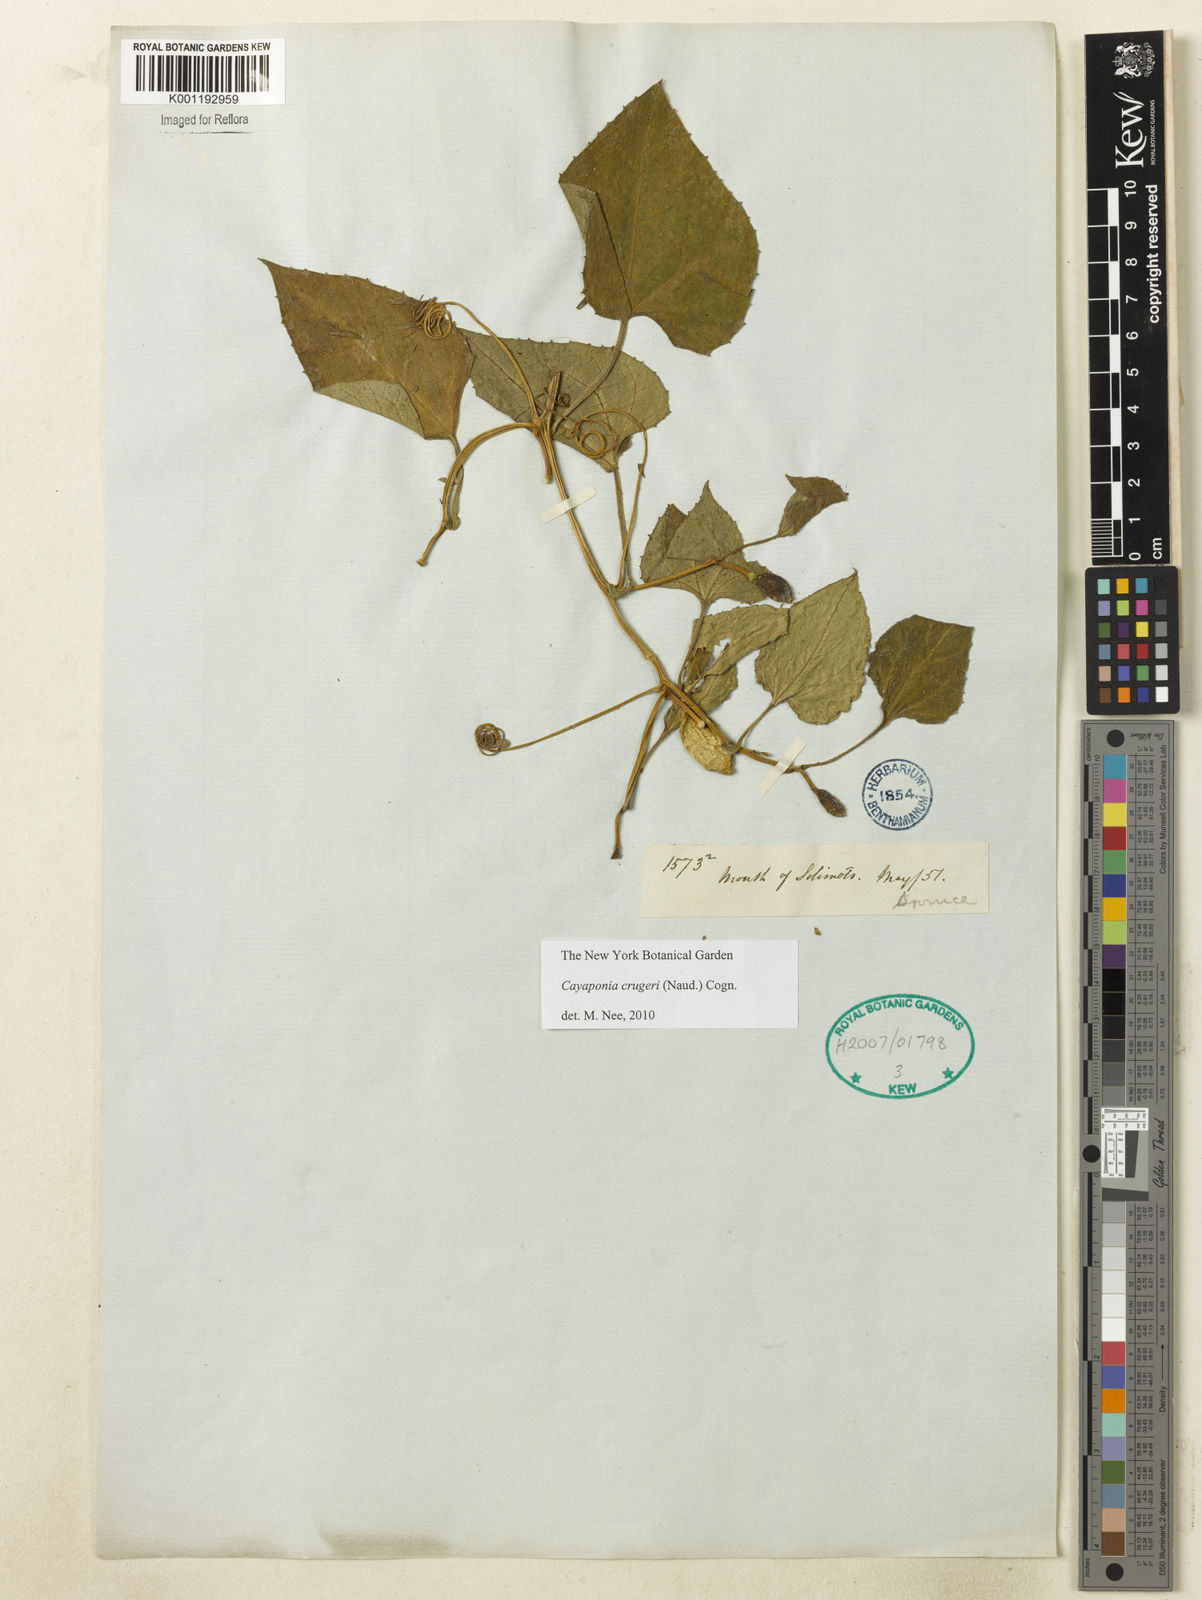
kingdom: Plantae
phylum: Tracheophyta
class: Magnoliopsida
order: Cucurbitales
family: Cucurbitaceae
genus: Cayaponia
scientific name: Cayaponia cruegeri
